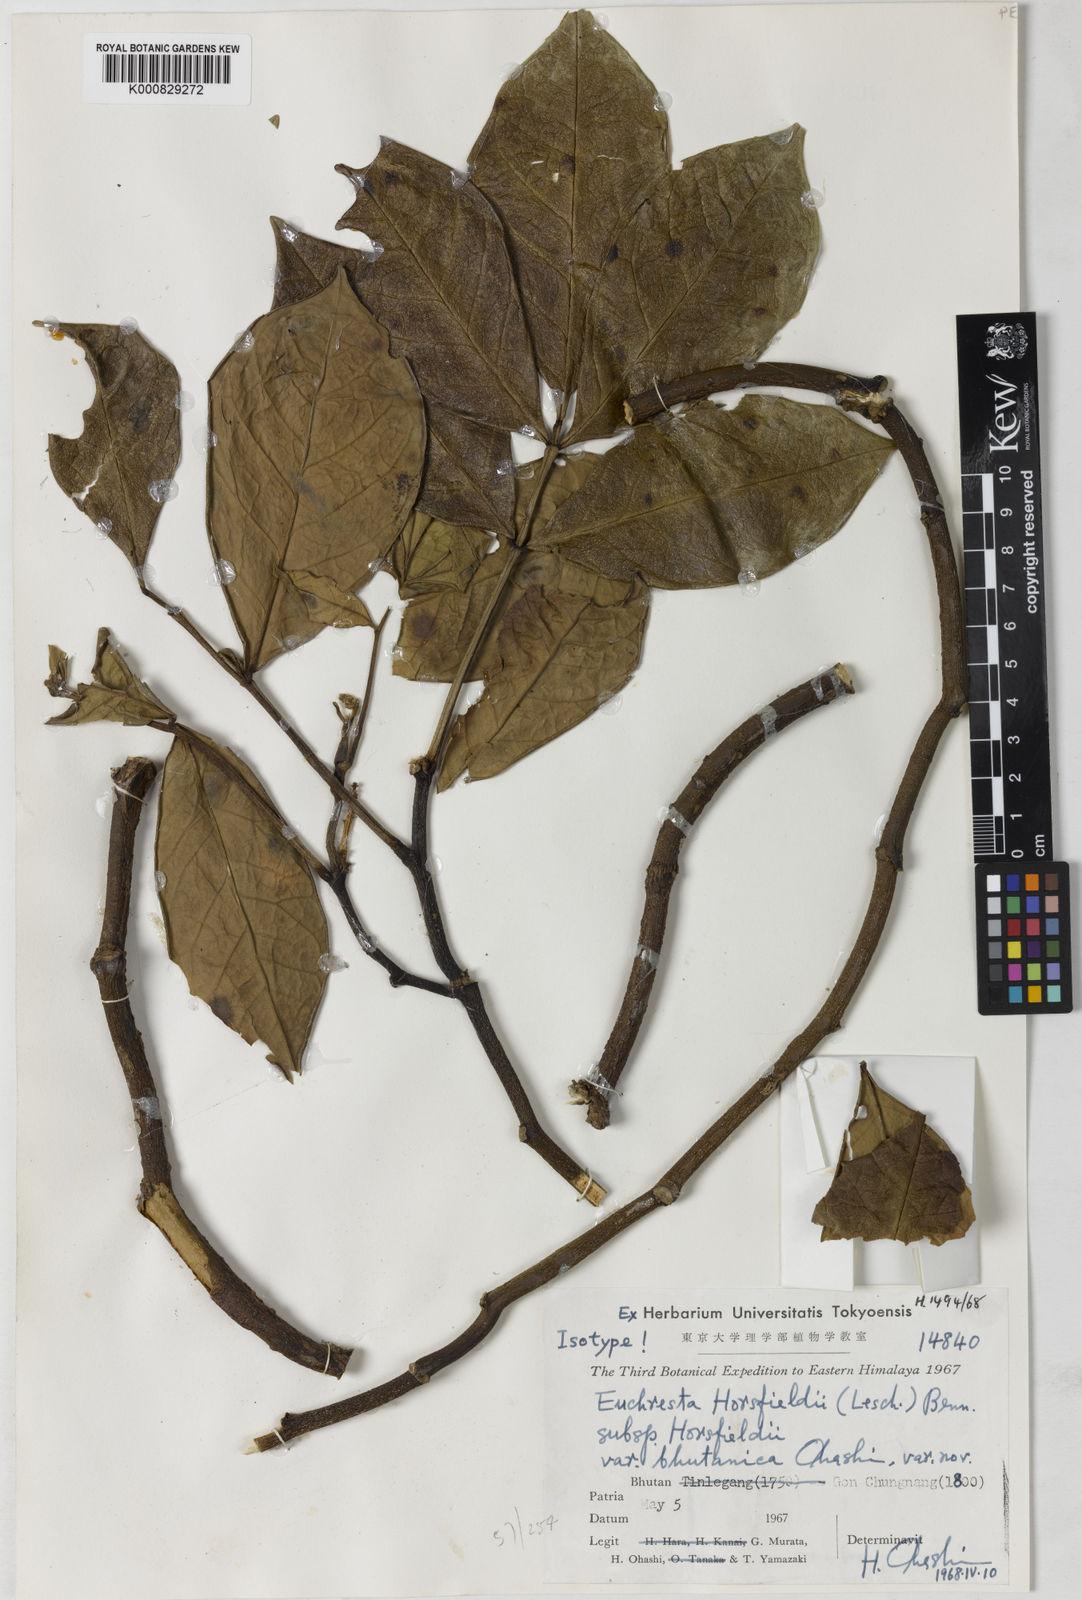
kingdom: Plantae
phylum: Tracheophyta
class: Magnoliopsida
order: Fabales
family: Fabaceae
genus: Euchresta
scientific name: Euchresta horsfieldii
